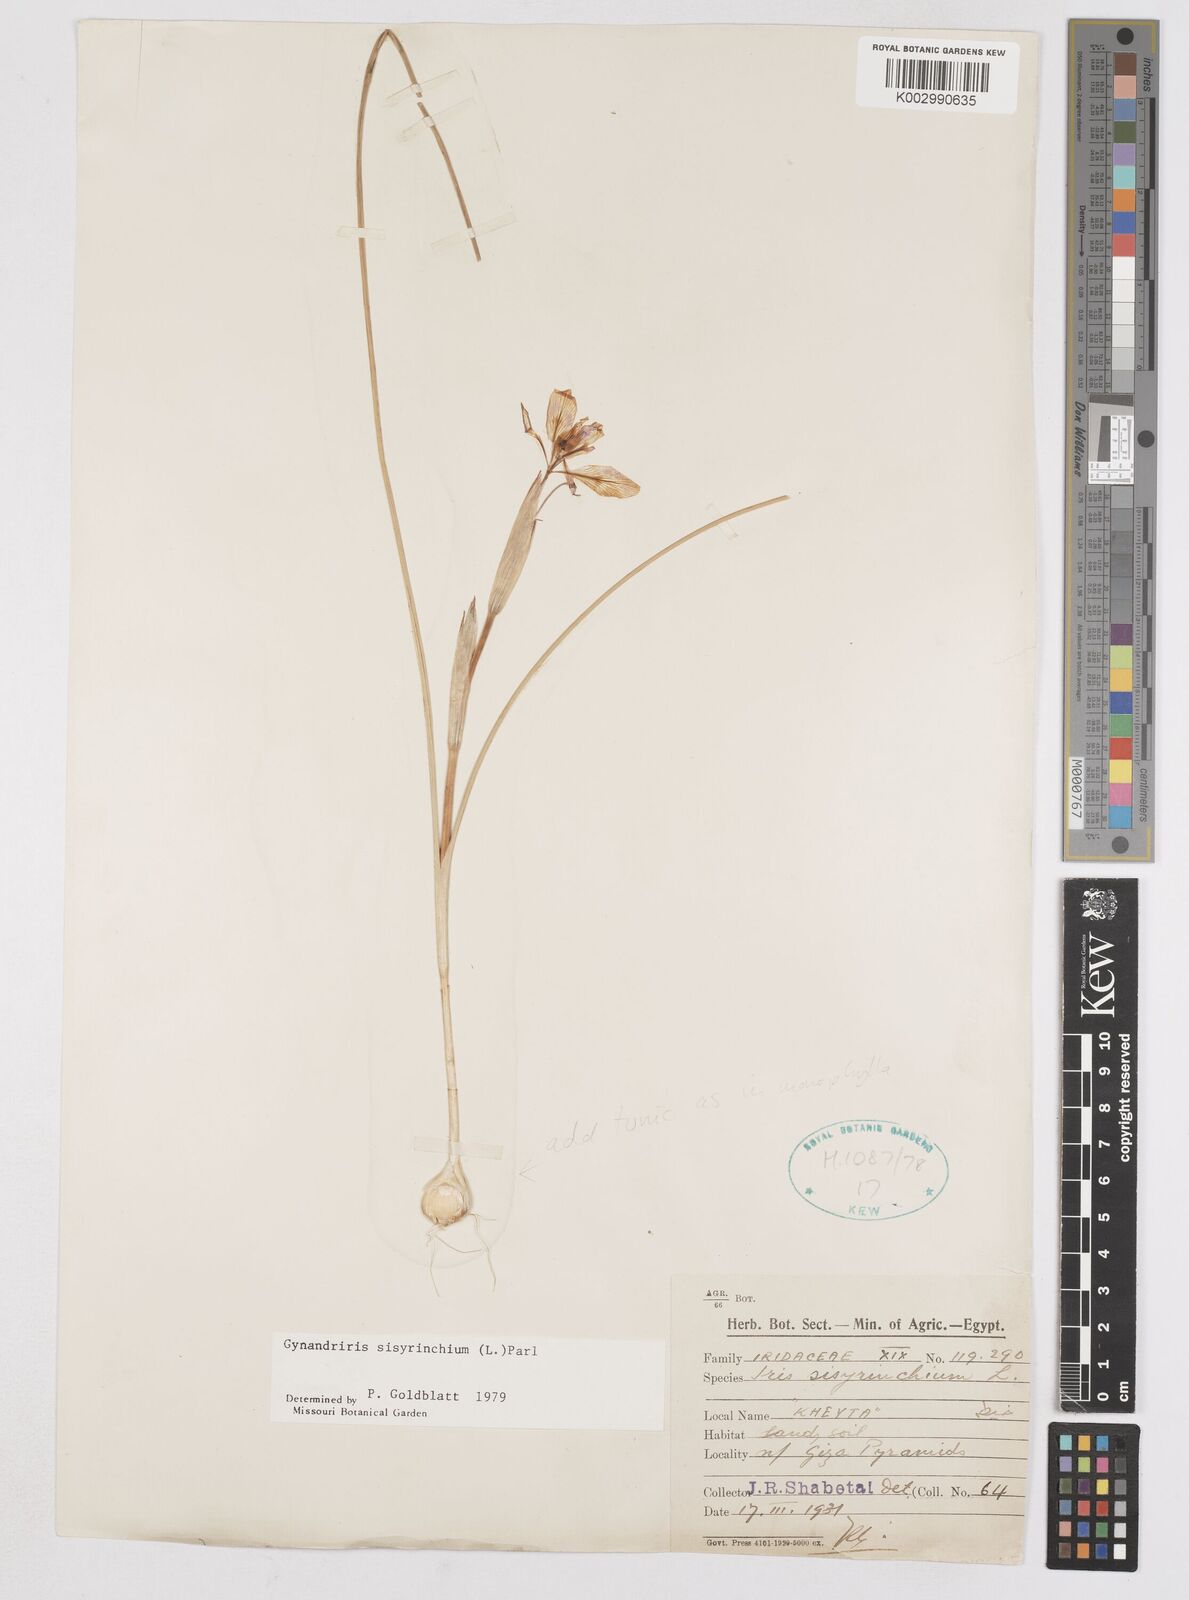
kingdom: Plantae
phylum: Tracheophyta
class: Liliopsida
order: Asparagales
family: Iridaceae
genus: Moraea
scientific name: Moraea sisyrinchium
